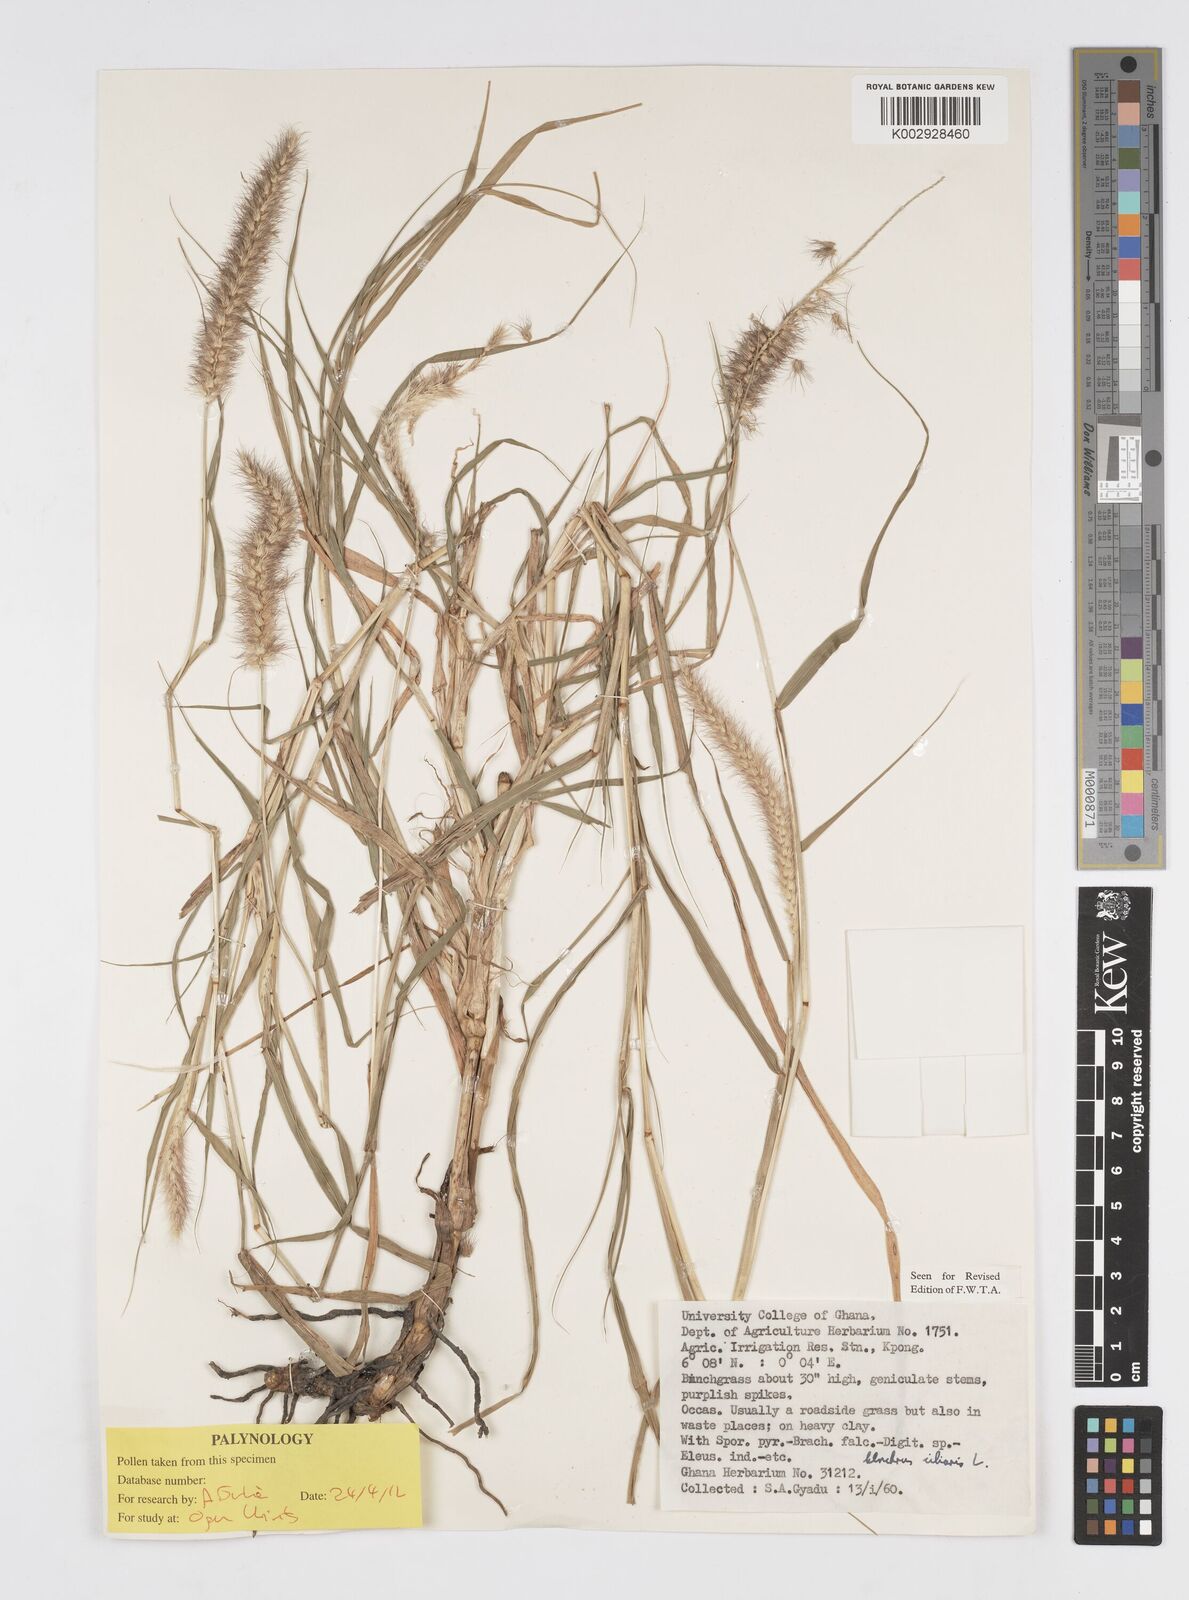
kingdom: Plantae
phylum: Tracheophyta
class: Liliopsida
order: Poales
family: Poaceae
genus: Cenchrus
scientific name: Cenchrus ciliaris
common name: Buffelgrass
